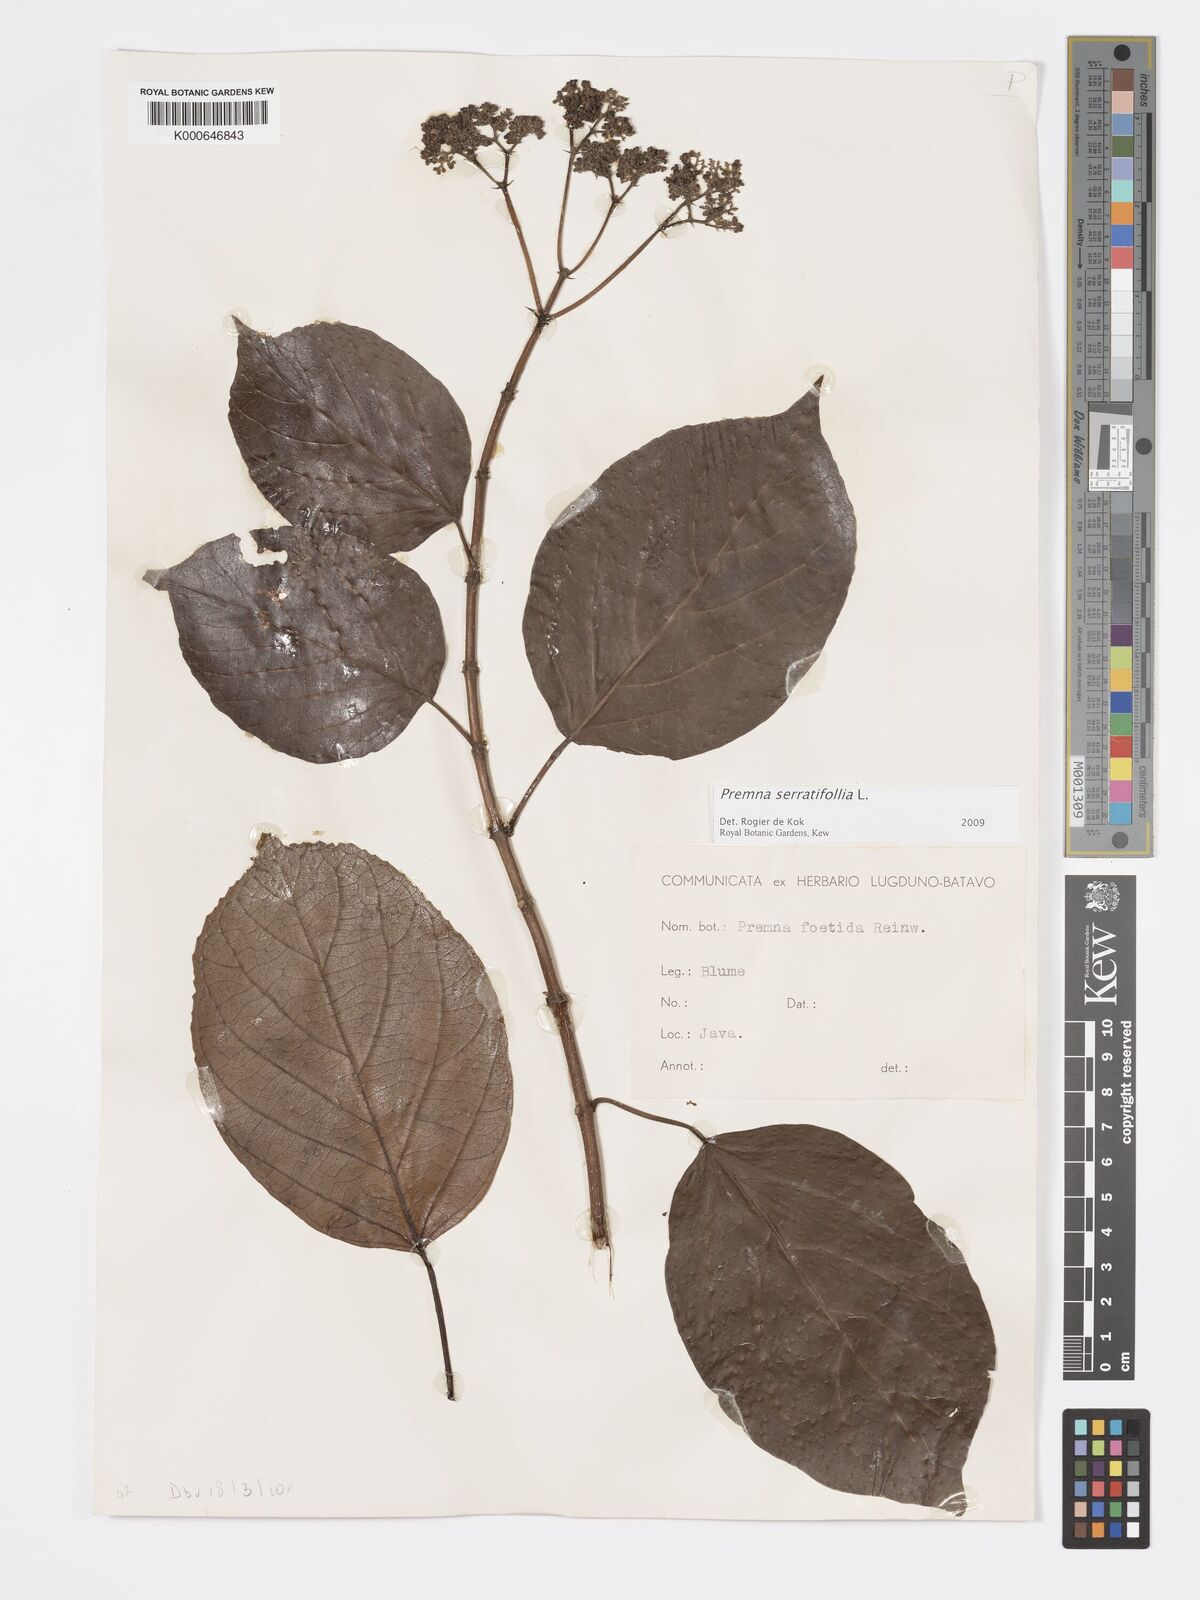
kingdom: Plantae
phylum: Tracheophyta
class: Magnoliopsida
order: Lamiales
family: Lamiaceae
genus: Premna
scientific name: Premna serratifolia
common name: Bastard guelder
